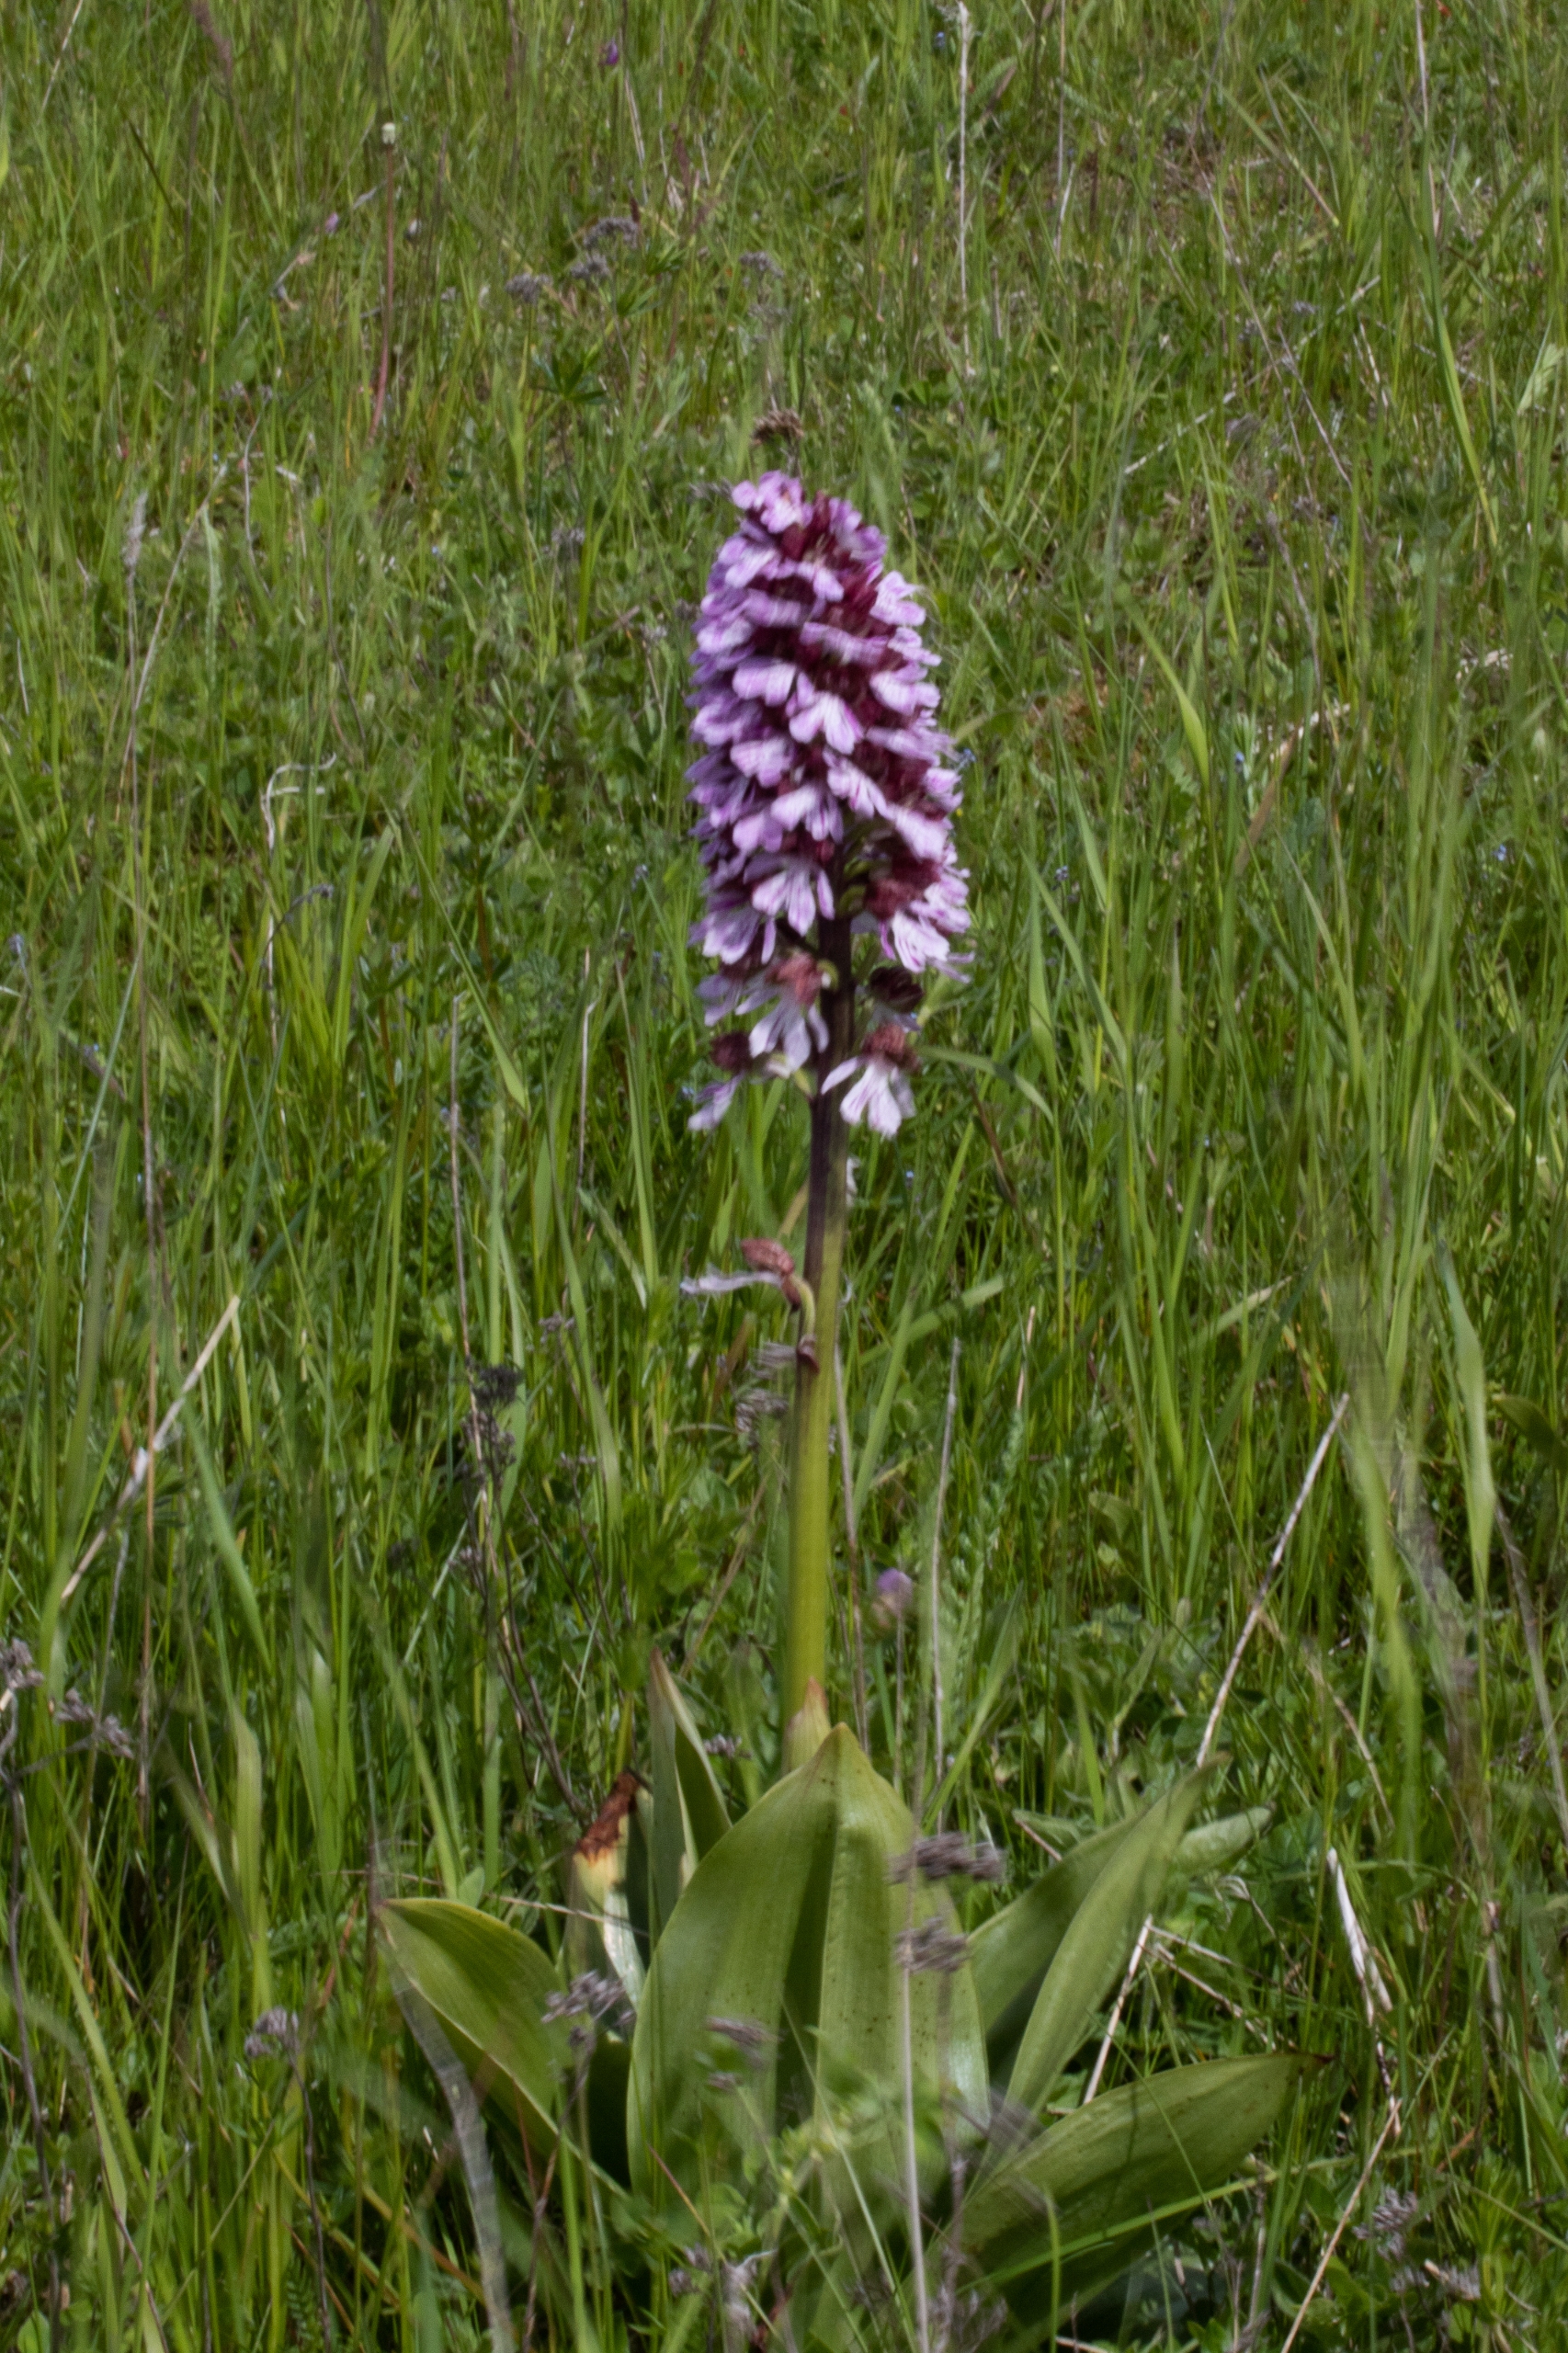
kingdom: Plantae
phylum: Tracheophyta
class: Liliopsida
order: Asparagales
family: Orchidaceae
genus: Orchis
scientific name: Orchis purpurea
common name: Stor gøgeurt
